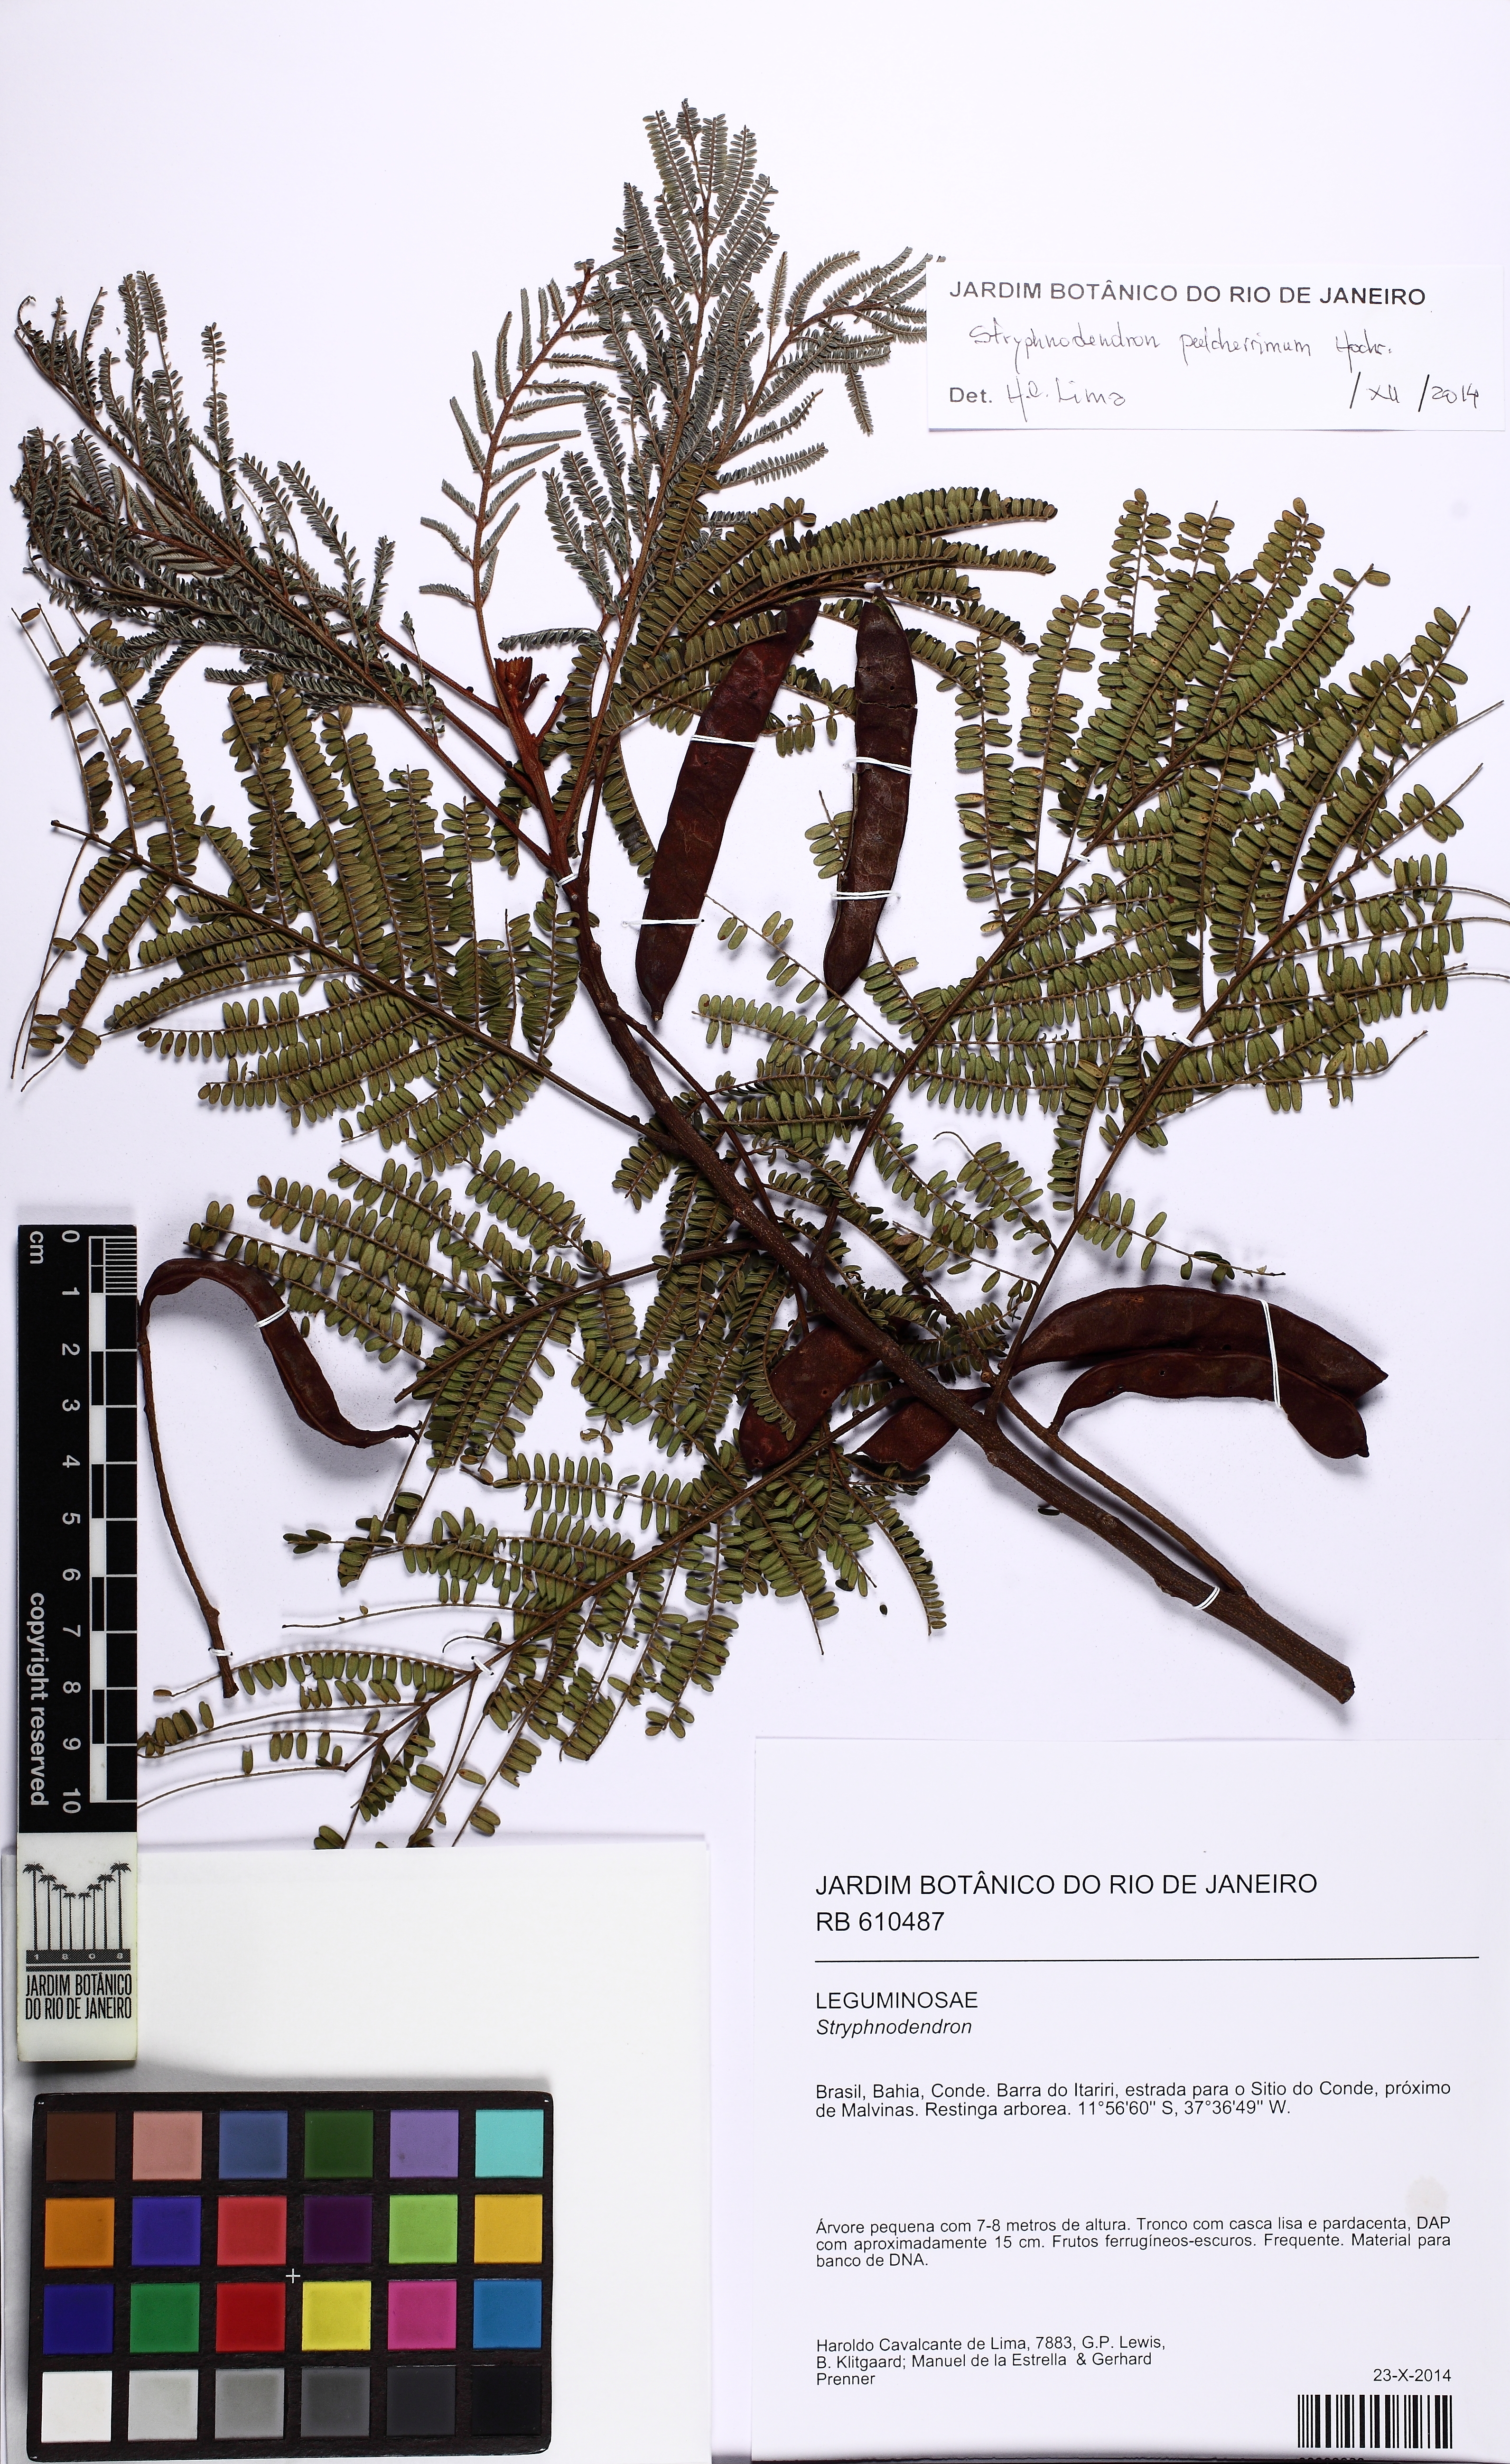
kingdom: Plantae
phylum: Tracheophyta
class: Magnoliopsida
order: Fabales
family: Fabaceae
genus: Stryphnodendron
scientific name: Stryphnodendron pulcherrimum
